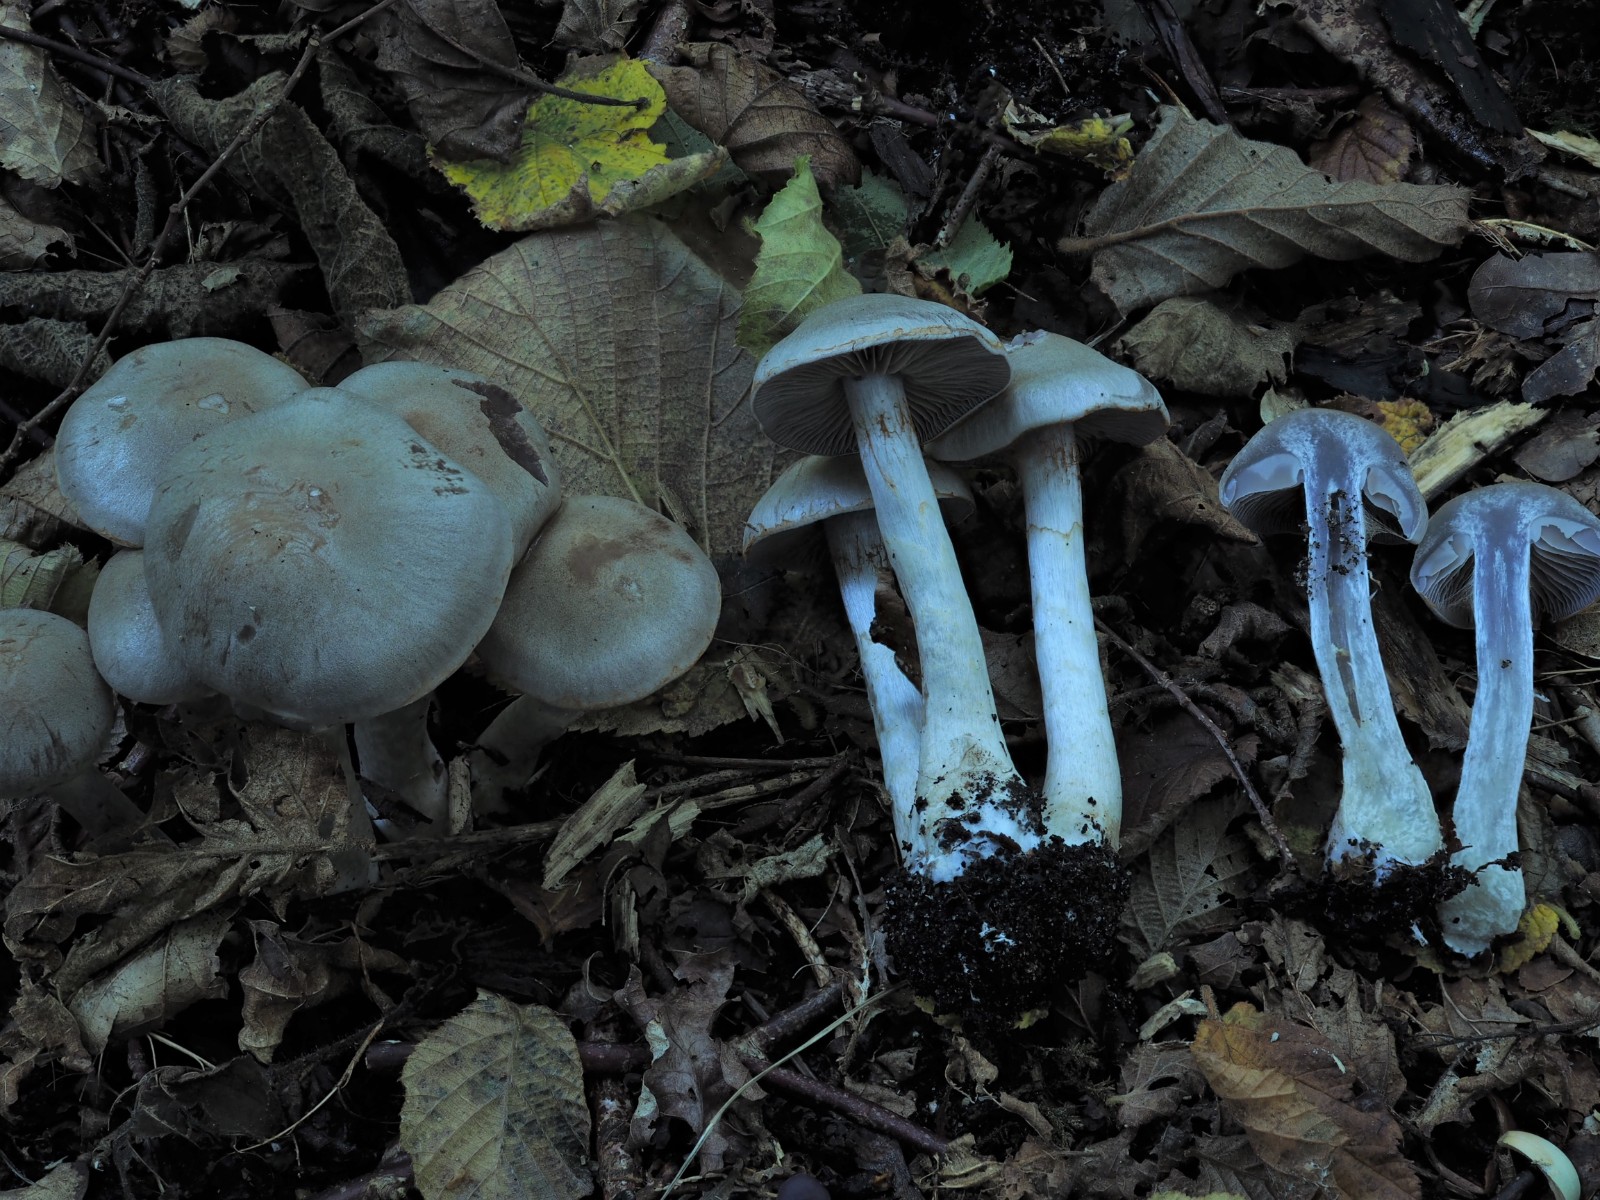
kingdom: Fungi
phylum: Basidiomycota
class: Agaricomycetes
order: Agaricales
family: Cortinariaceae
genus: Cortinarius
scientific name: Cortinarius anomalus
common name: Variable webcap
